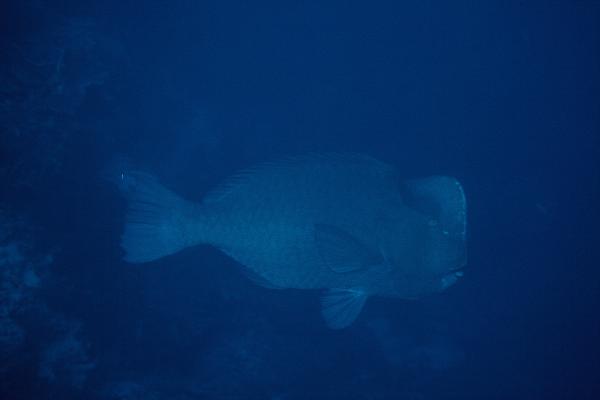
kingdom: Animalia
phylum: Chordata
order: Perciformes
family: Scaridae
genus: Bolbometopon
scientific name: Bolbometopon muricatum
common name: Humphead parrotfish
